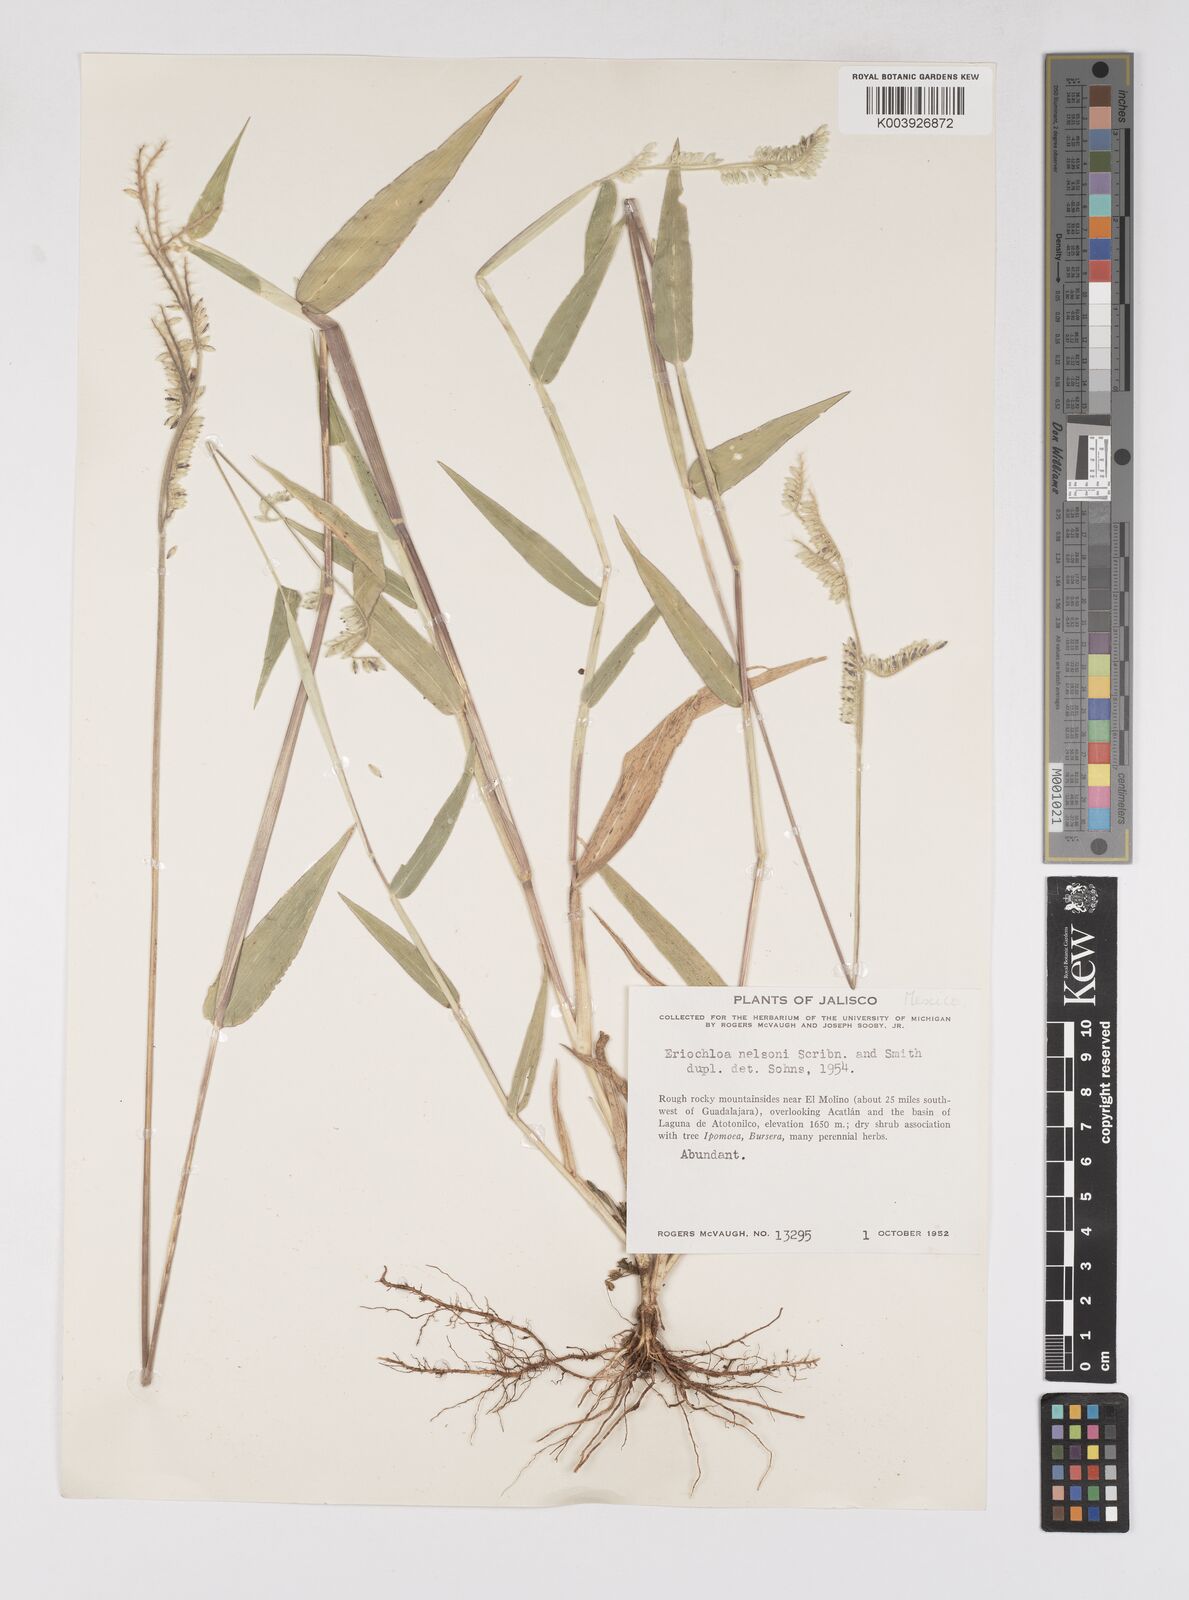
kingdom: Plantae
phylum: Tracheophyta
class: Liliopsida
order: Poales
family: Poaceae
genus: Eriochloa
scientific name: Eriochloa nelsonii
